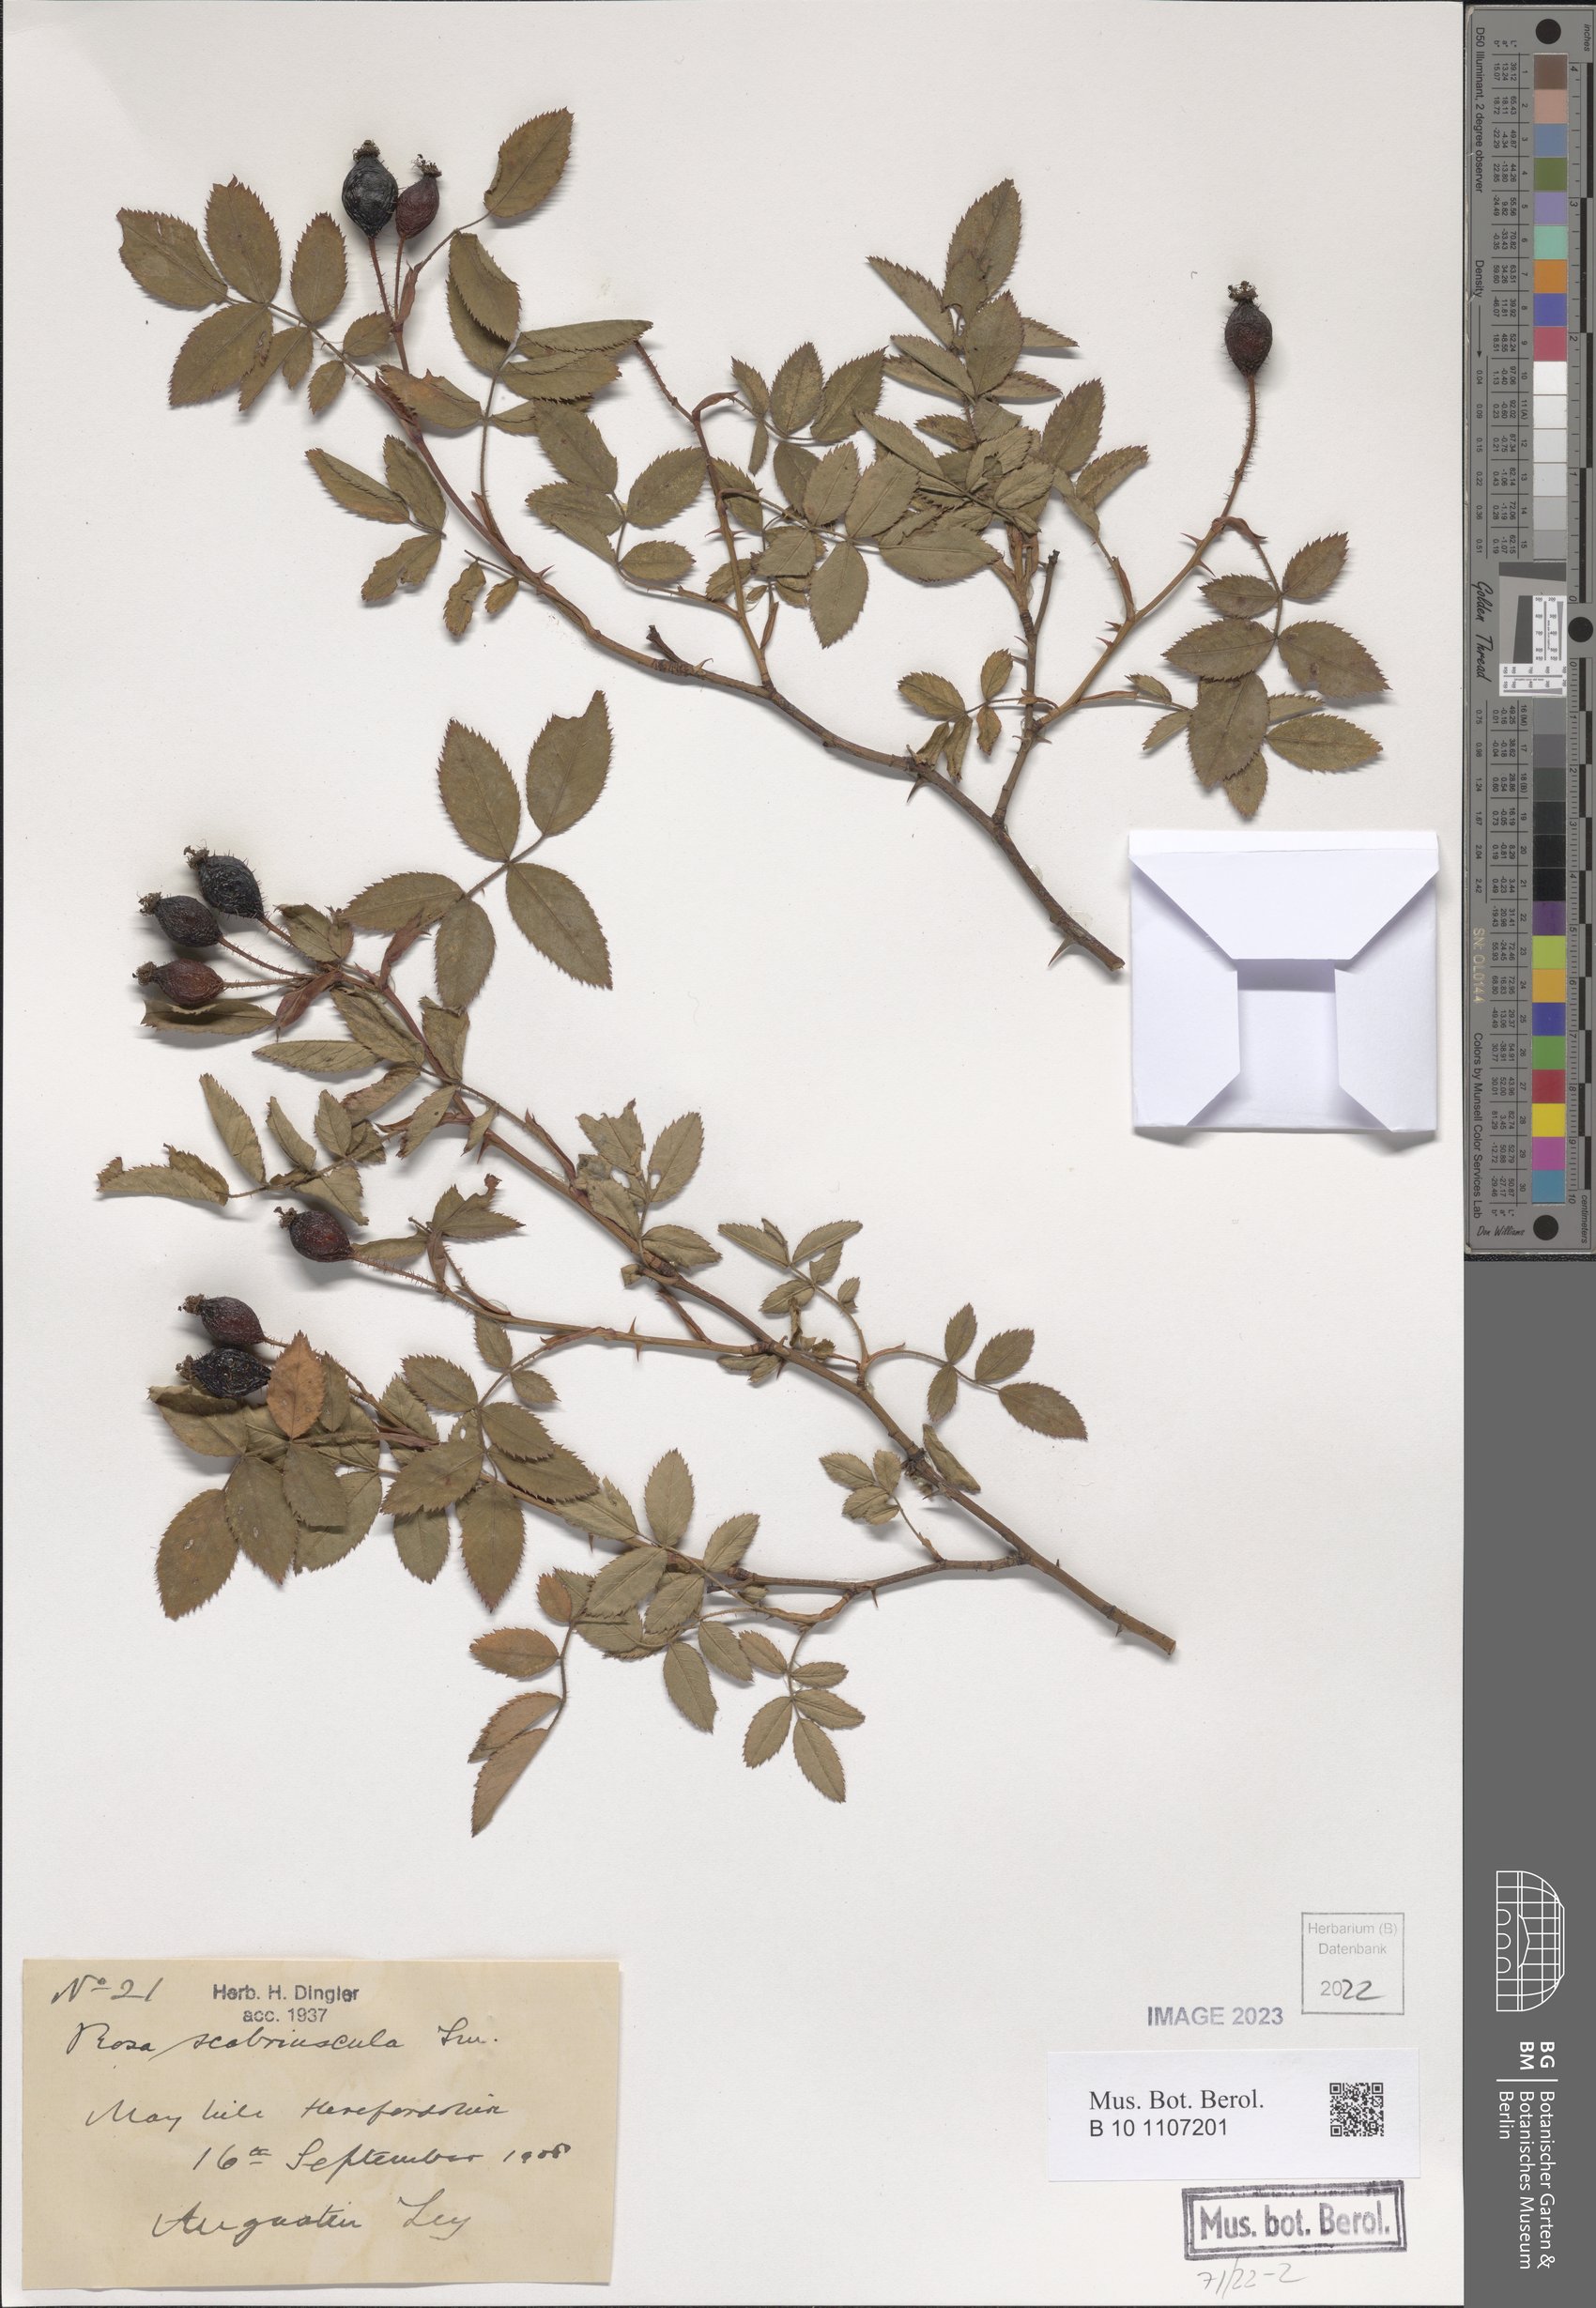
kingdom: Plantae
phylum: Tracheophyta
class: Magnoliopsida
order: Rosales
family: Rosaceae
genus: Rosa
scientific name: Rosa scabriuscula
